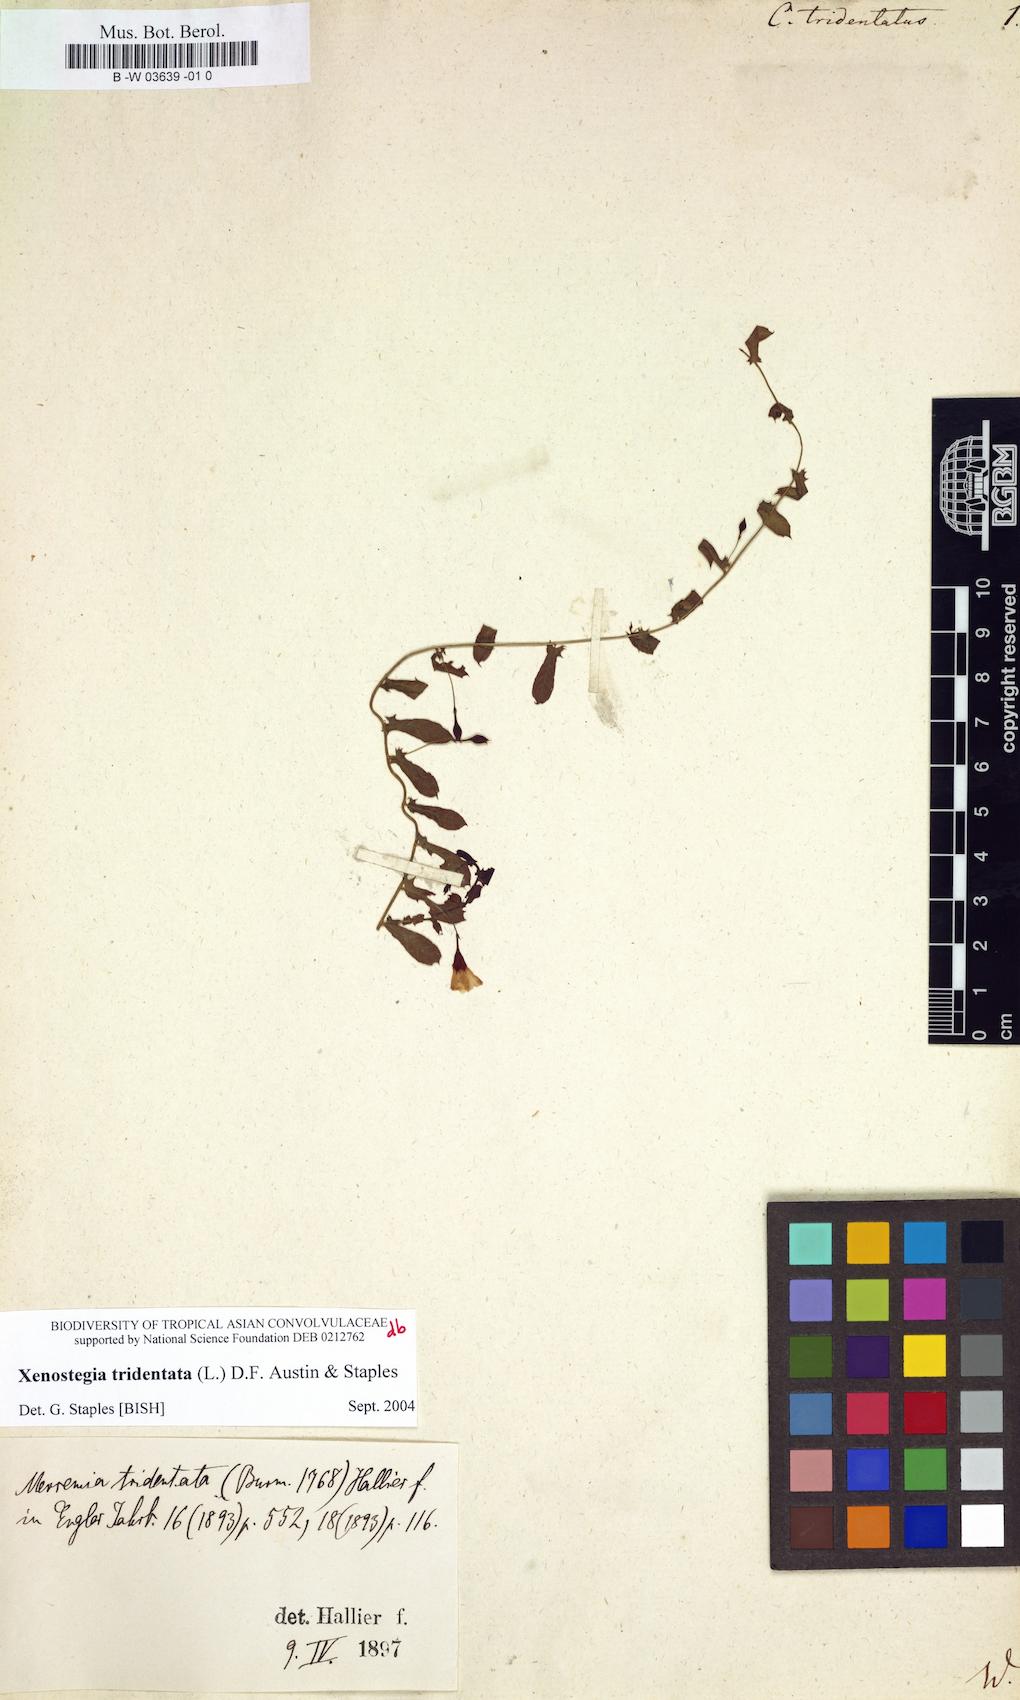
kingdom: Plantae
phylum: Tracheophyta
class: Magnoliopsida
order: Solanales
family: Convolvulaceae
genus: Xenostegia
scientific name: Xenostegia tridentata
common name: African morningvine
